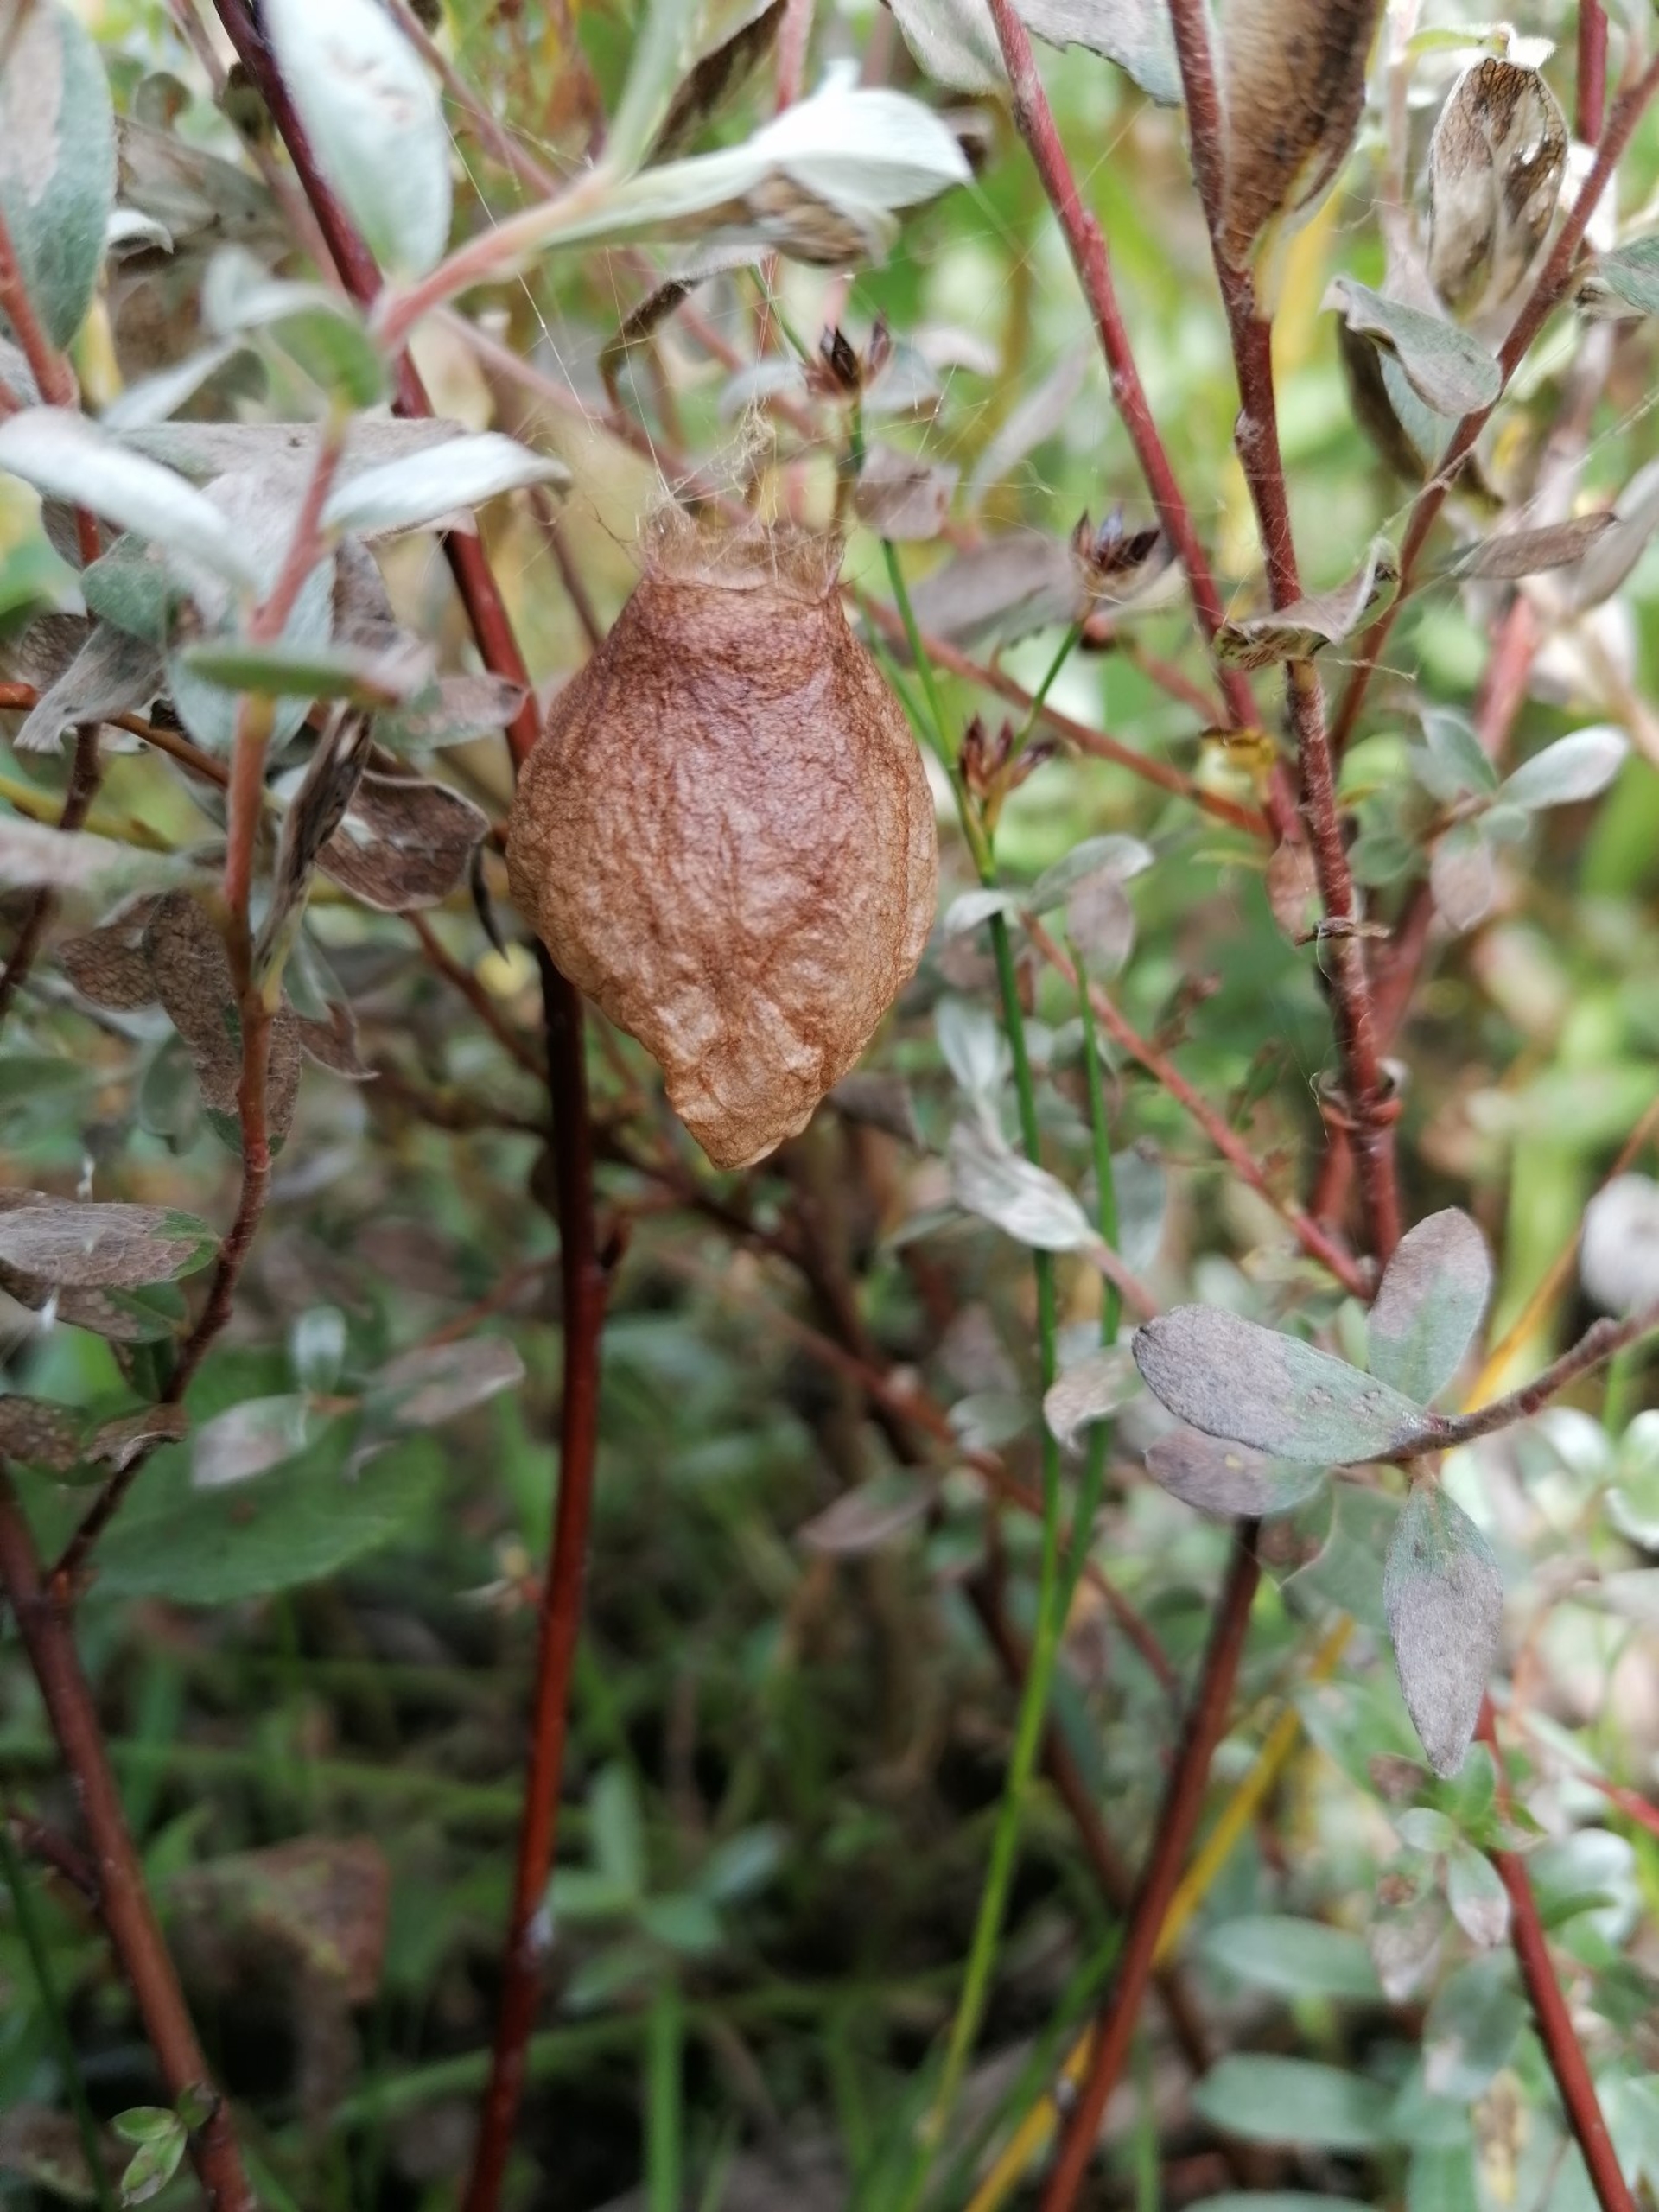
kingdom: Animalia
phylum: Arthropoda
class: Arachnida
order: Araneae
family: Araneidae
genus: Argiope
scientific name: Argiope bruennichi
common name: Hvepseedderkop
